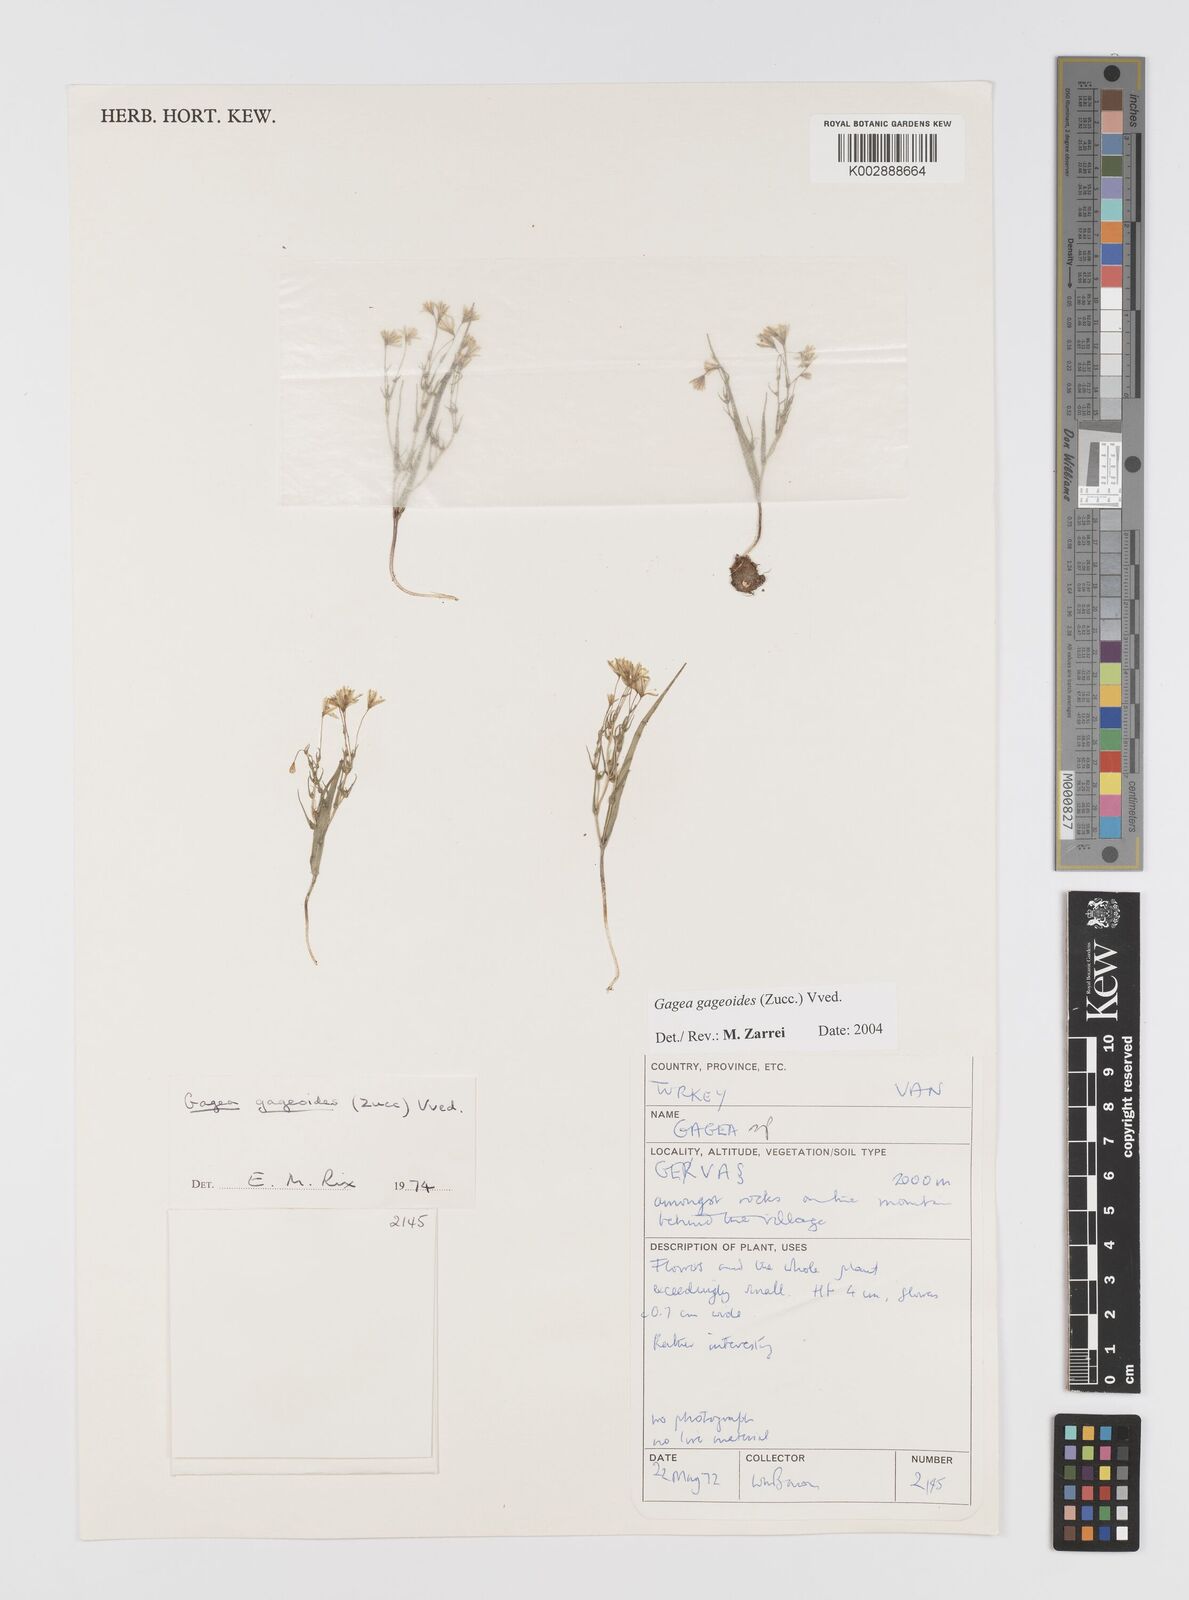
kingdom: Plantae
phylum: Tracheophyta
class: Liliopsida
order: Liliales
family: Liliaceae
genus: Gagea
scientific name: Gagea gageoides
